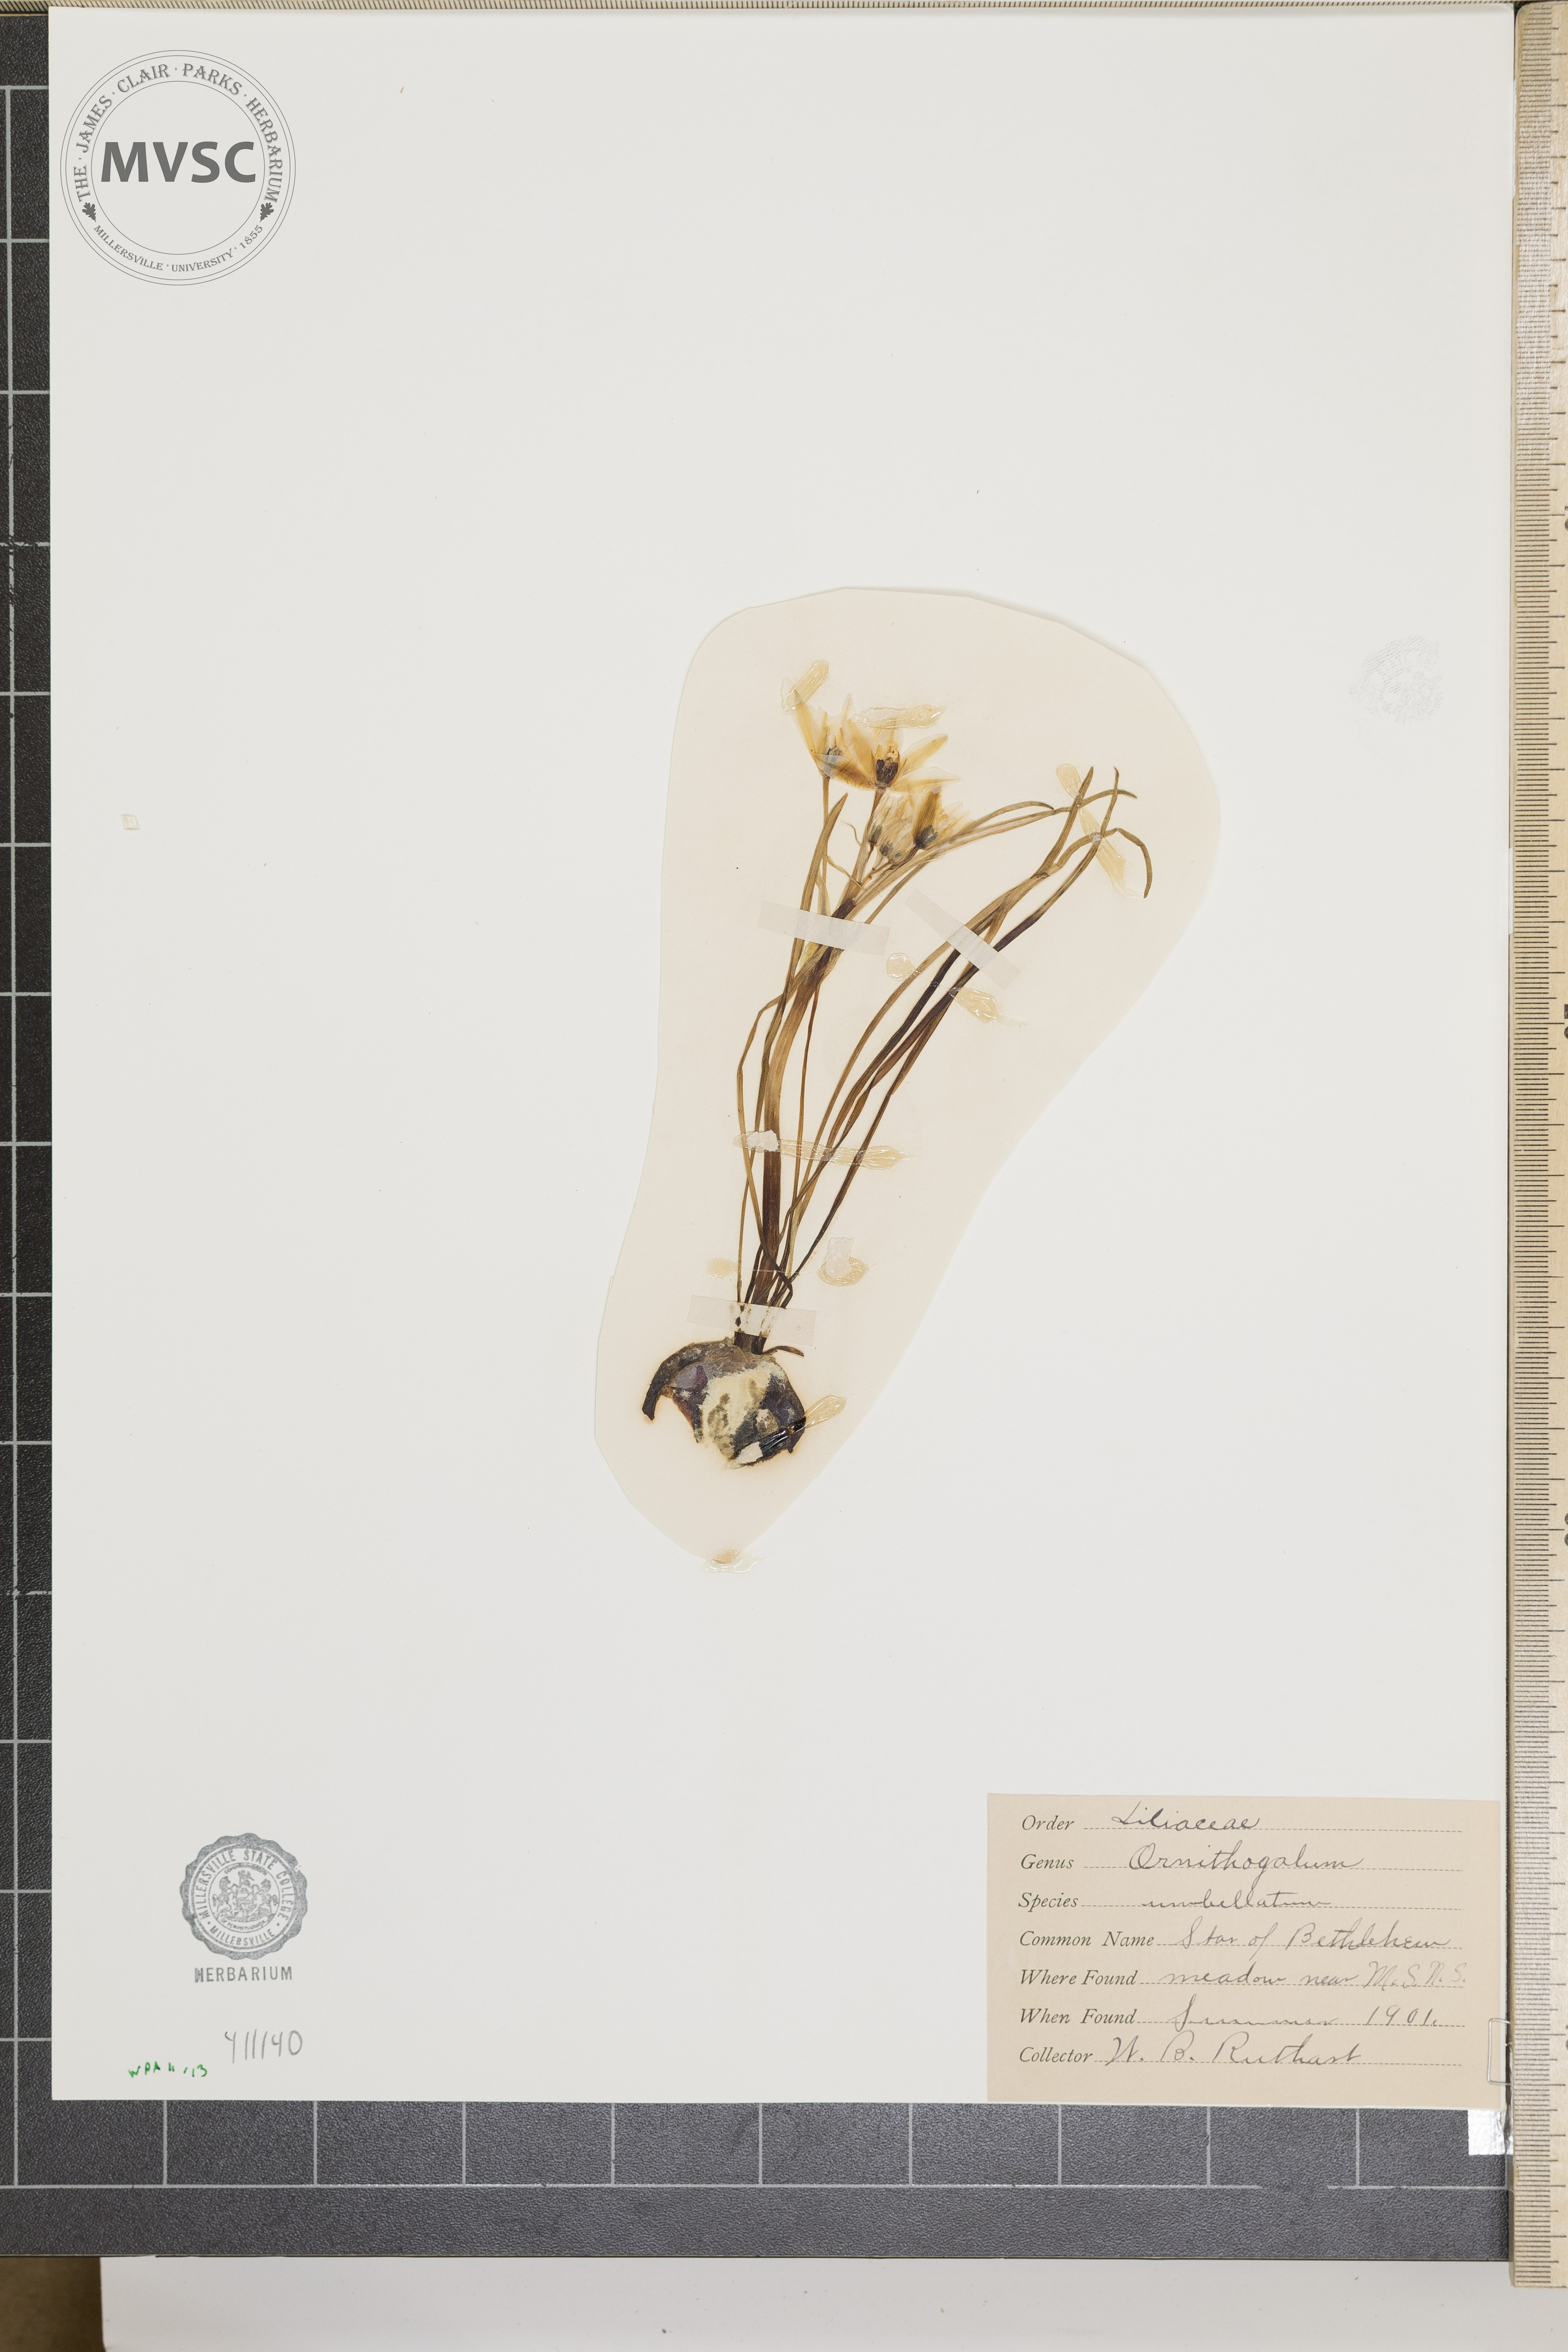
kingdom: Plantae
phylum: Tracheophyta
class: Liliopsida
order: Asparagales
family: Asparagaceae
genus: Ornithogalum
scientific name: Ornithogalum umbellatum
